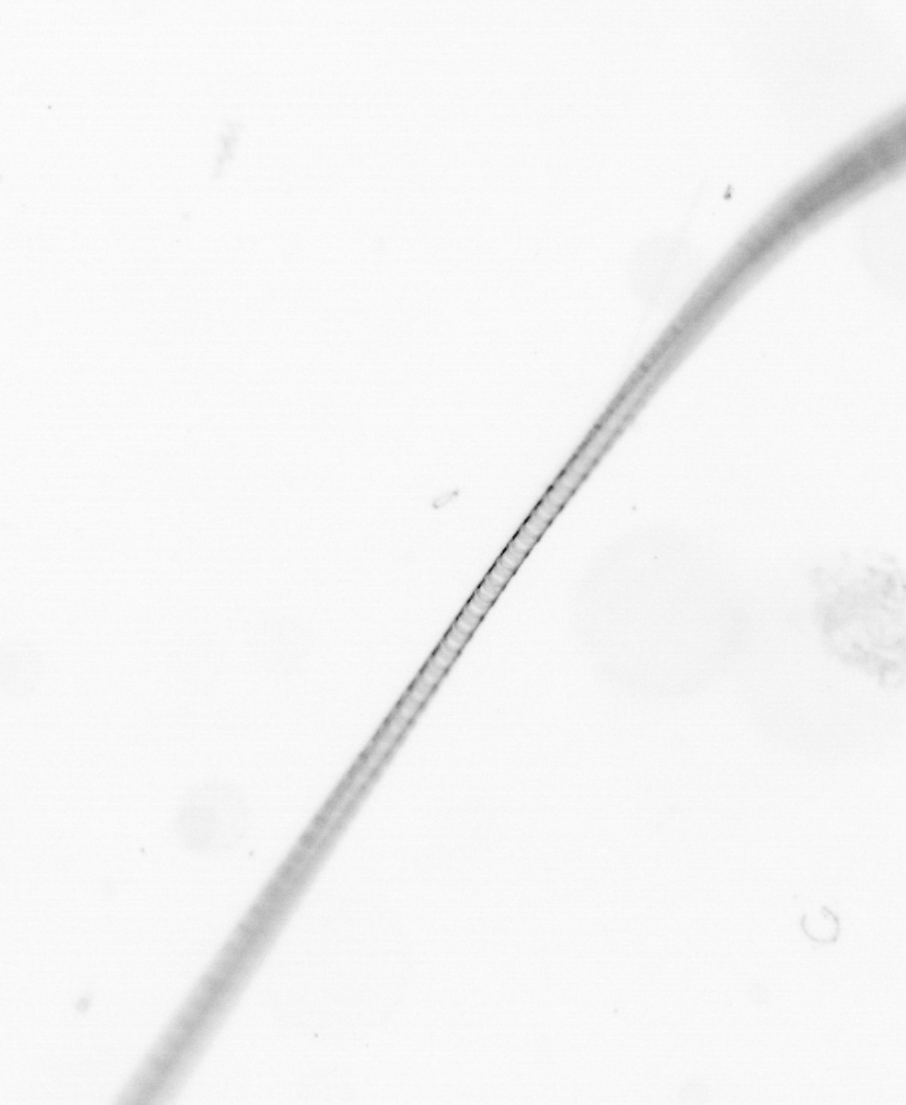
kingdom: Chromista
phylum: Ochrophyta
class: Bacillariophyceae
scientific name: Bacillariophyceae
